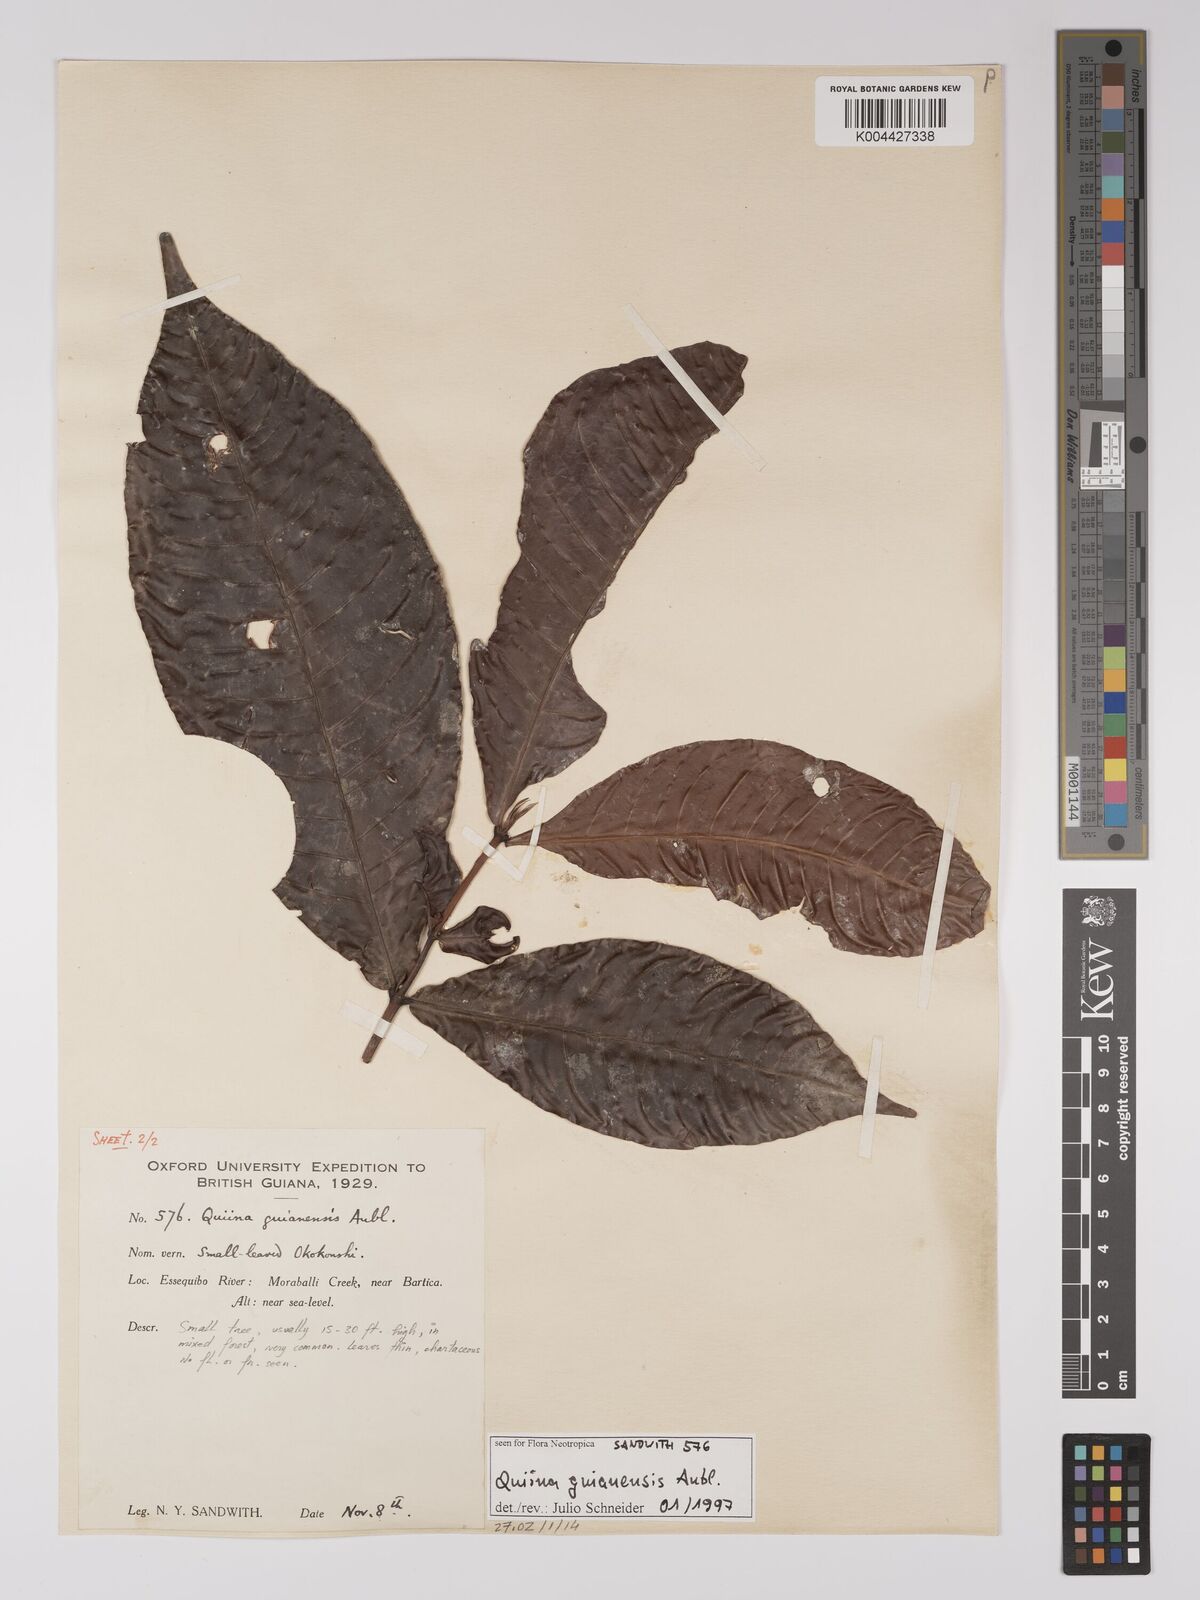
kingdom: Plantae
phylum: Tracheophyta
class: Magnoliopsida
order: Malpighiales
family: Quiinaceae
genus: Quiina
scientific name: Quiina guianensis
